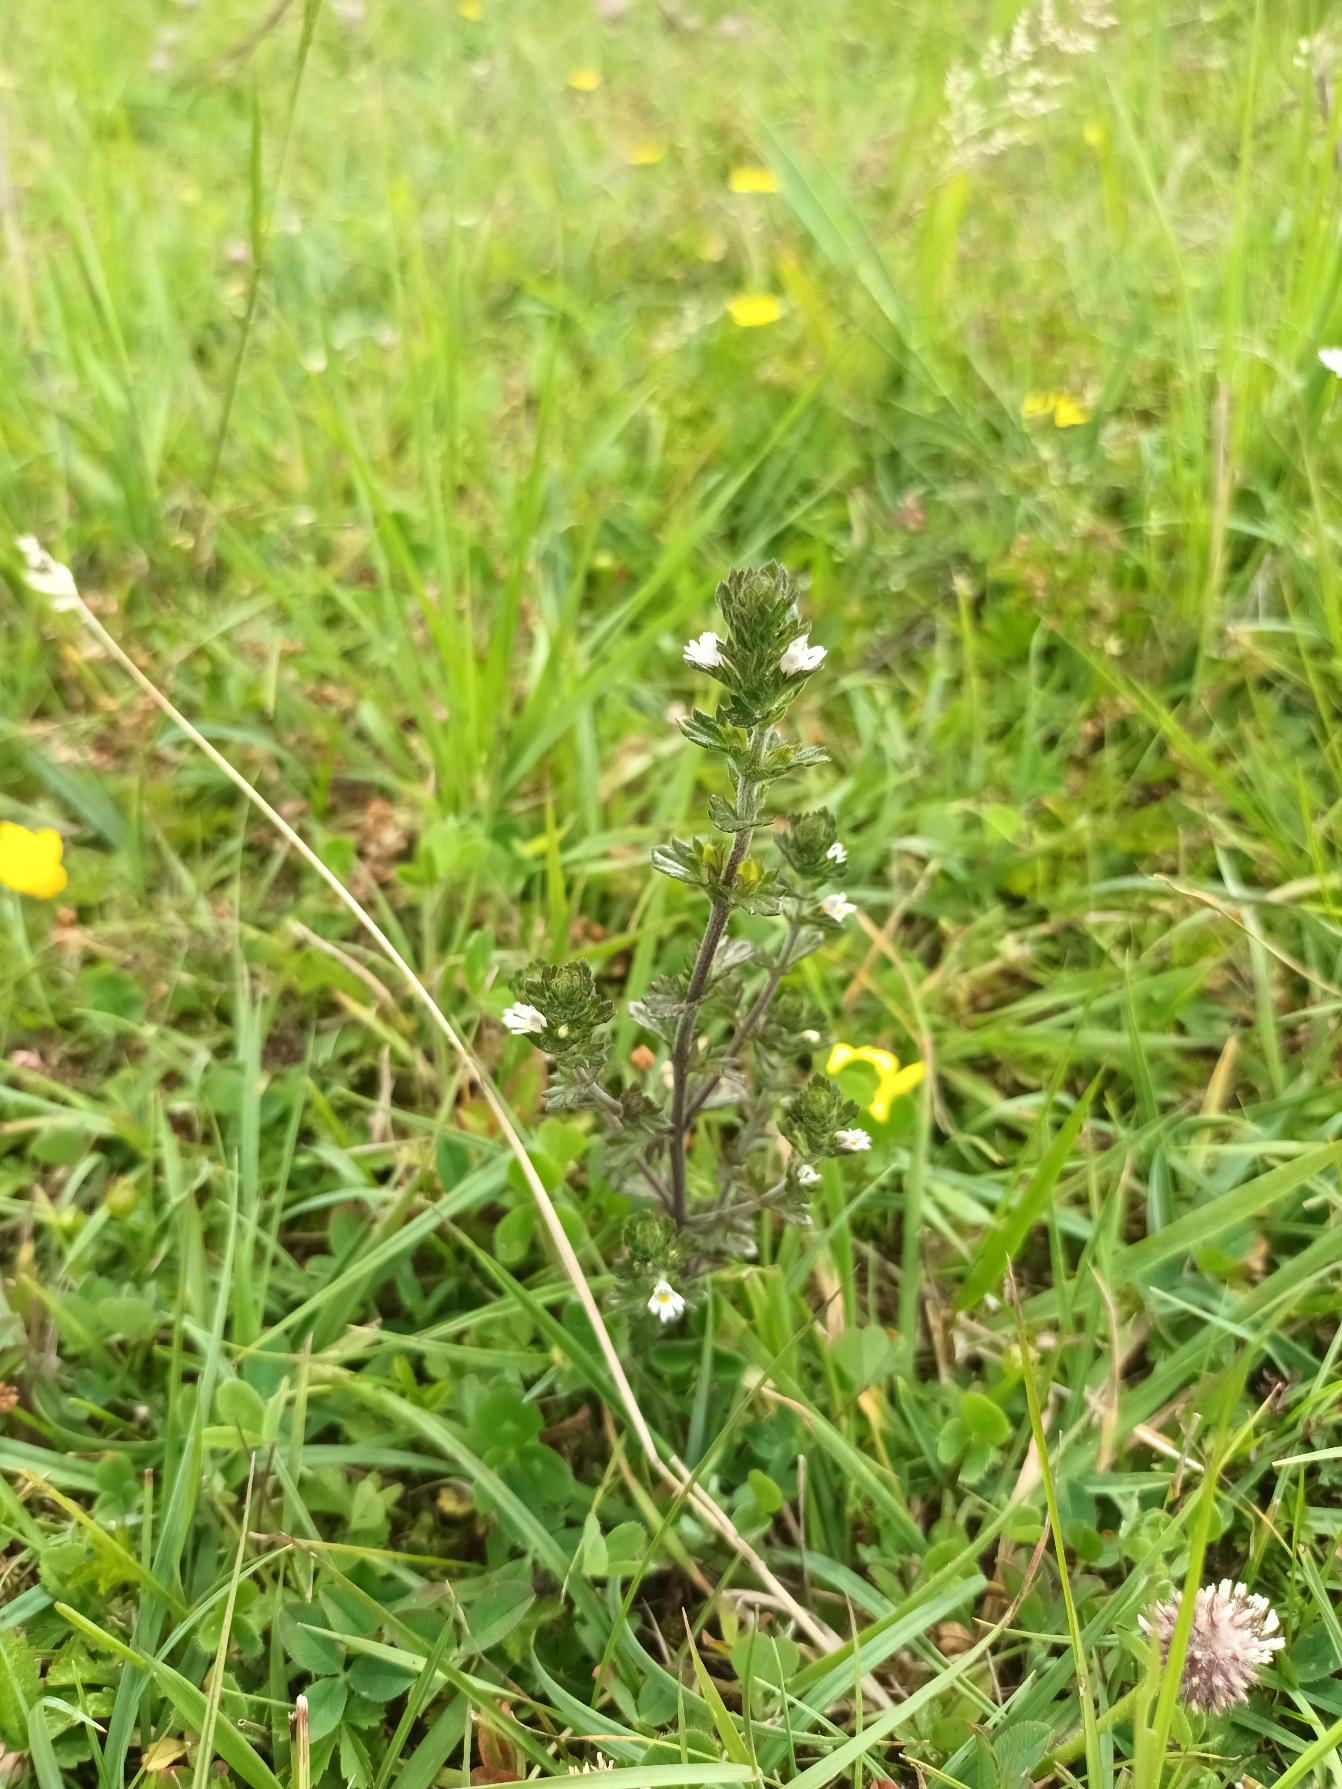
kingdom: Plantae
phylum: Tracheophyta
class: Magnoliopsida
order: Lamiales
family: Orobanchaceae
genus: Euphrasia
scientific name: Euphrasia nemorosa
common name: Kort øjentrøst
